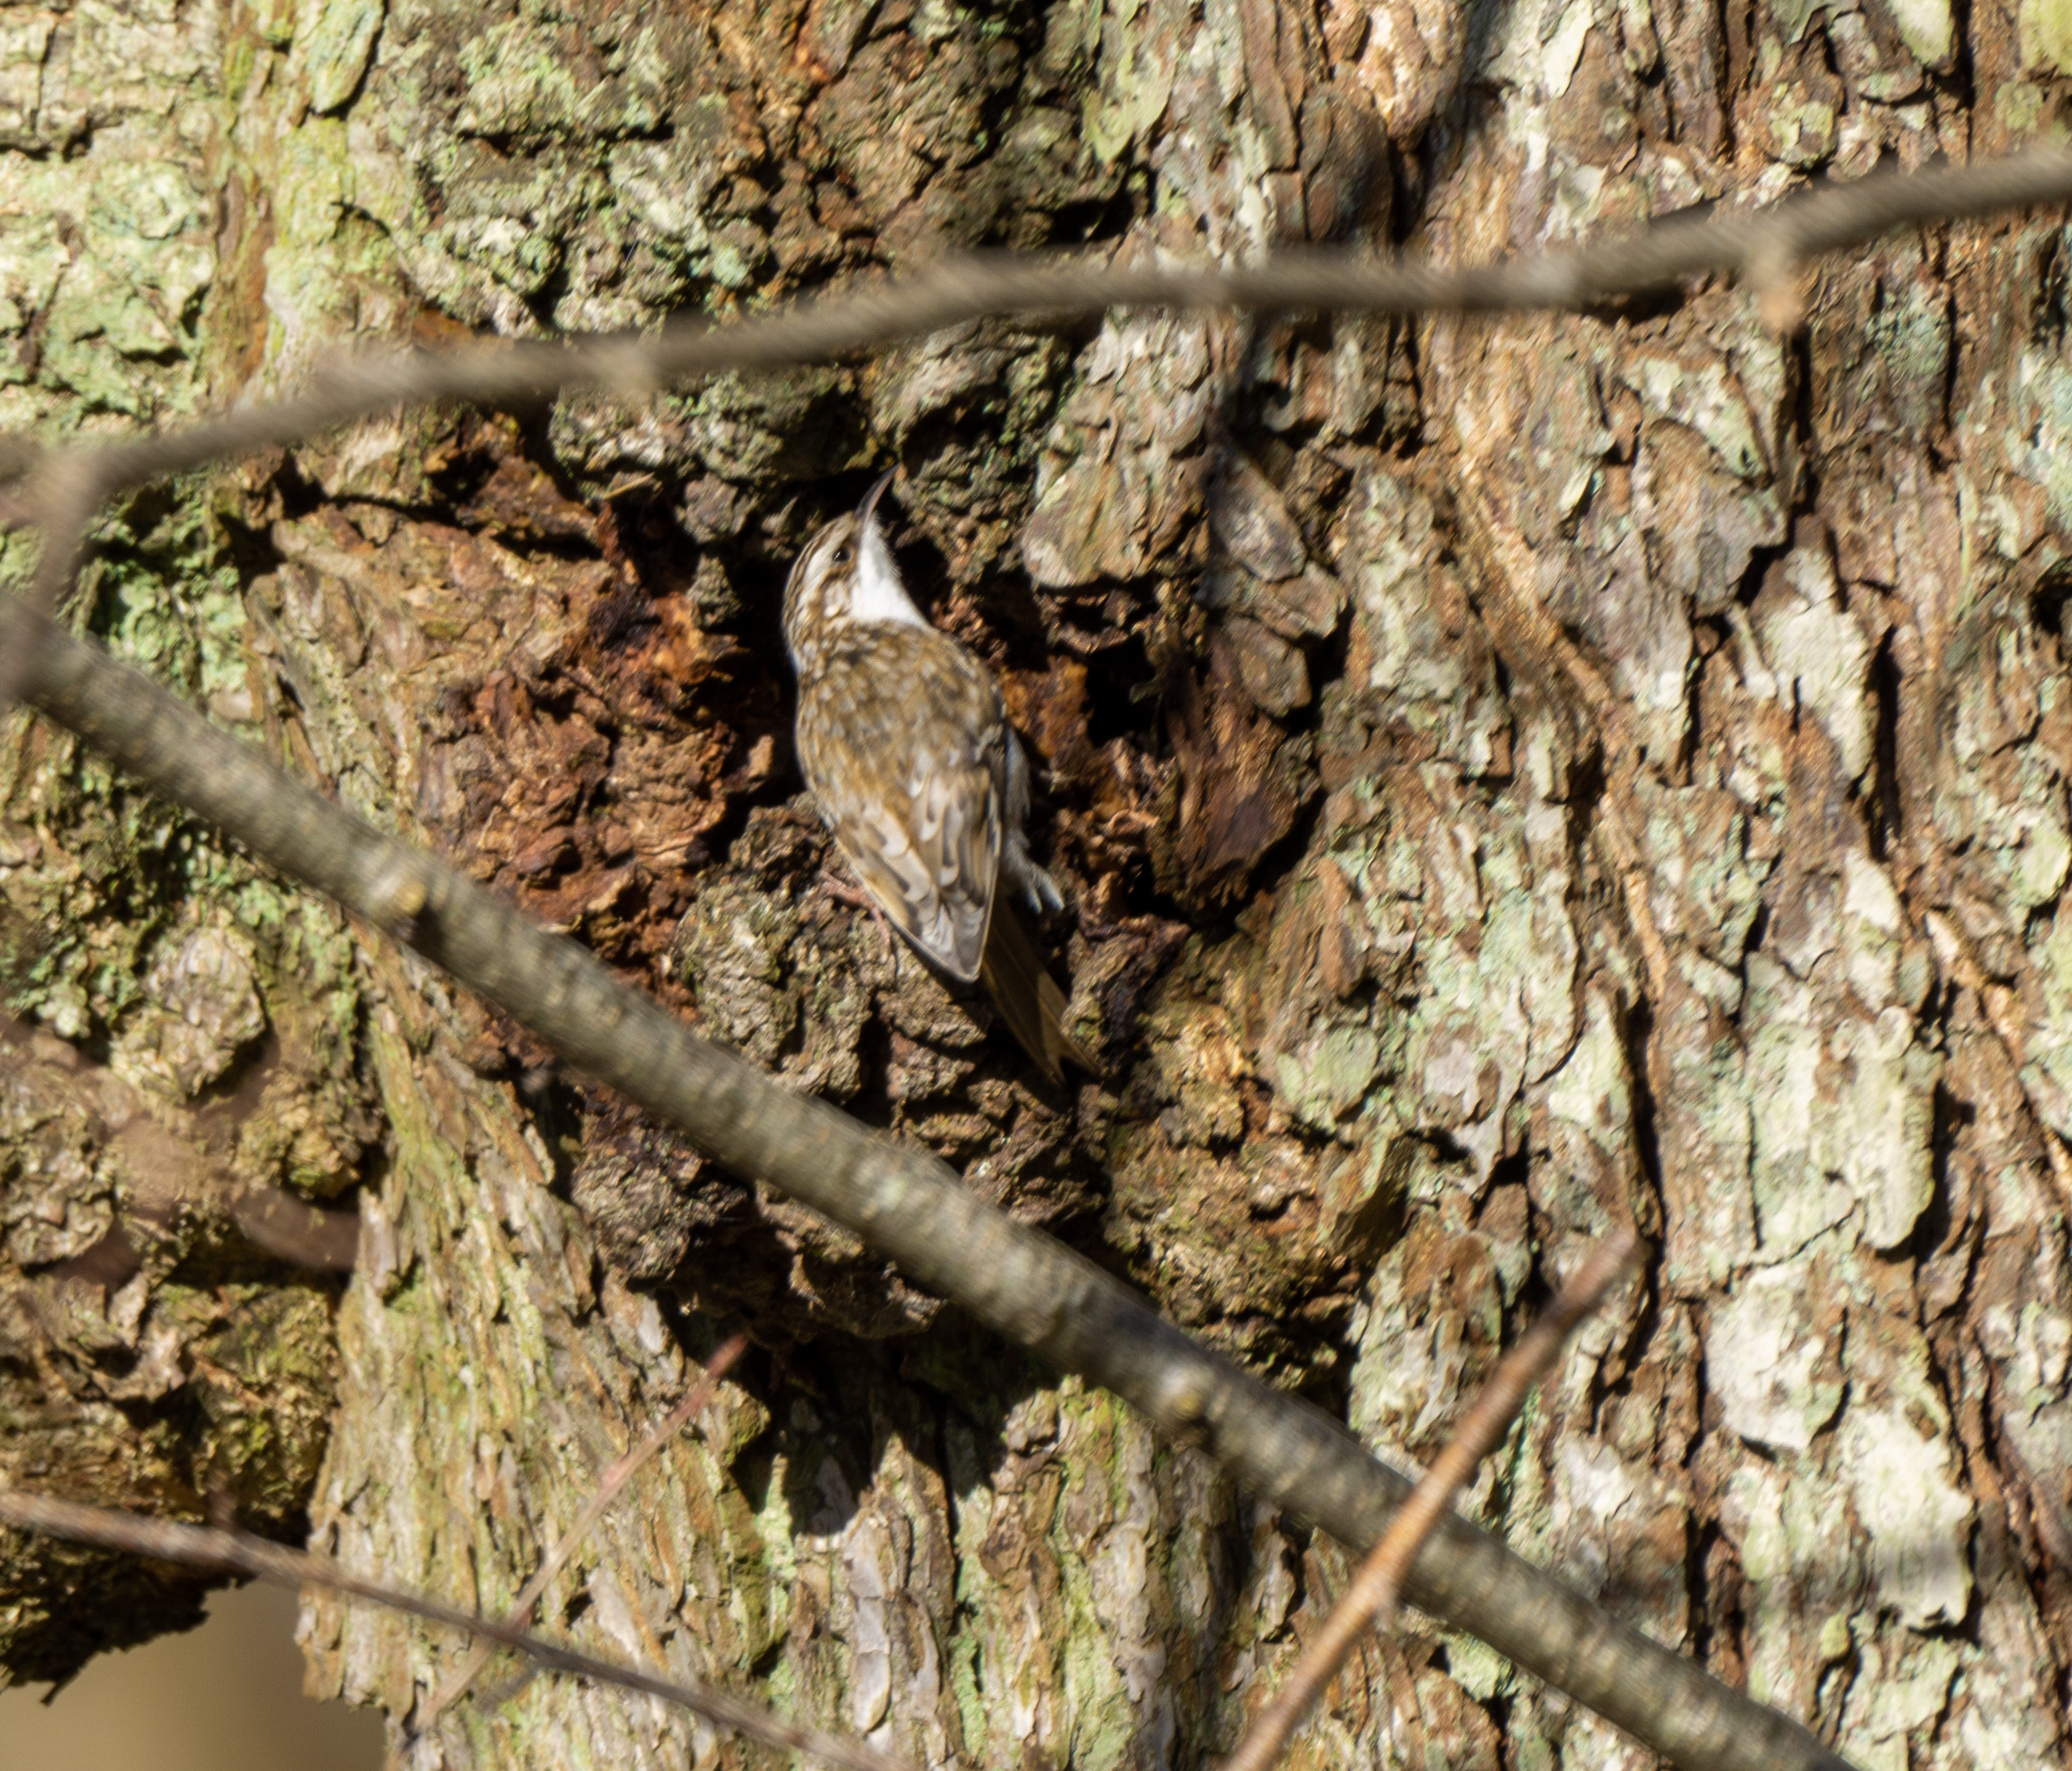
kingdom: Animalia
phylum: Chordata
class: Aves
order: Passeriformes
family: Certhiidae
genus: Certhia
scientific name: Certhia familiaris
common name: Træløber
